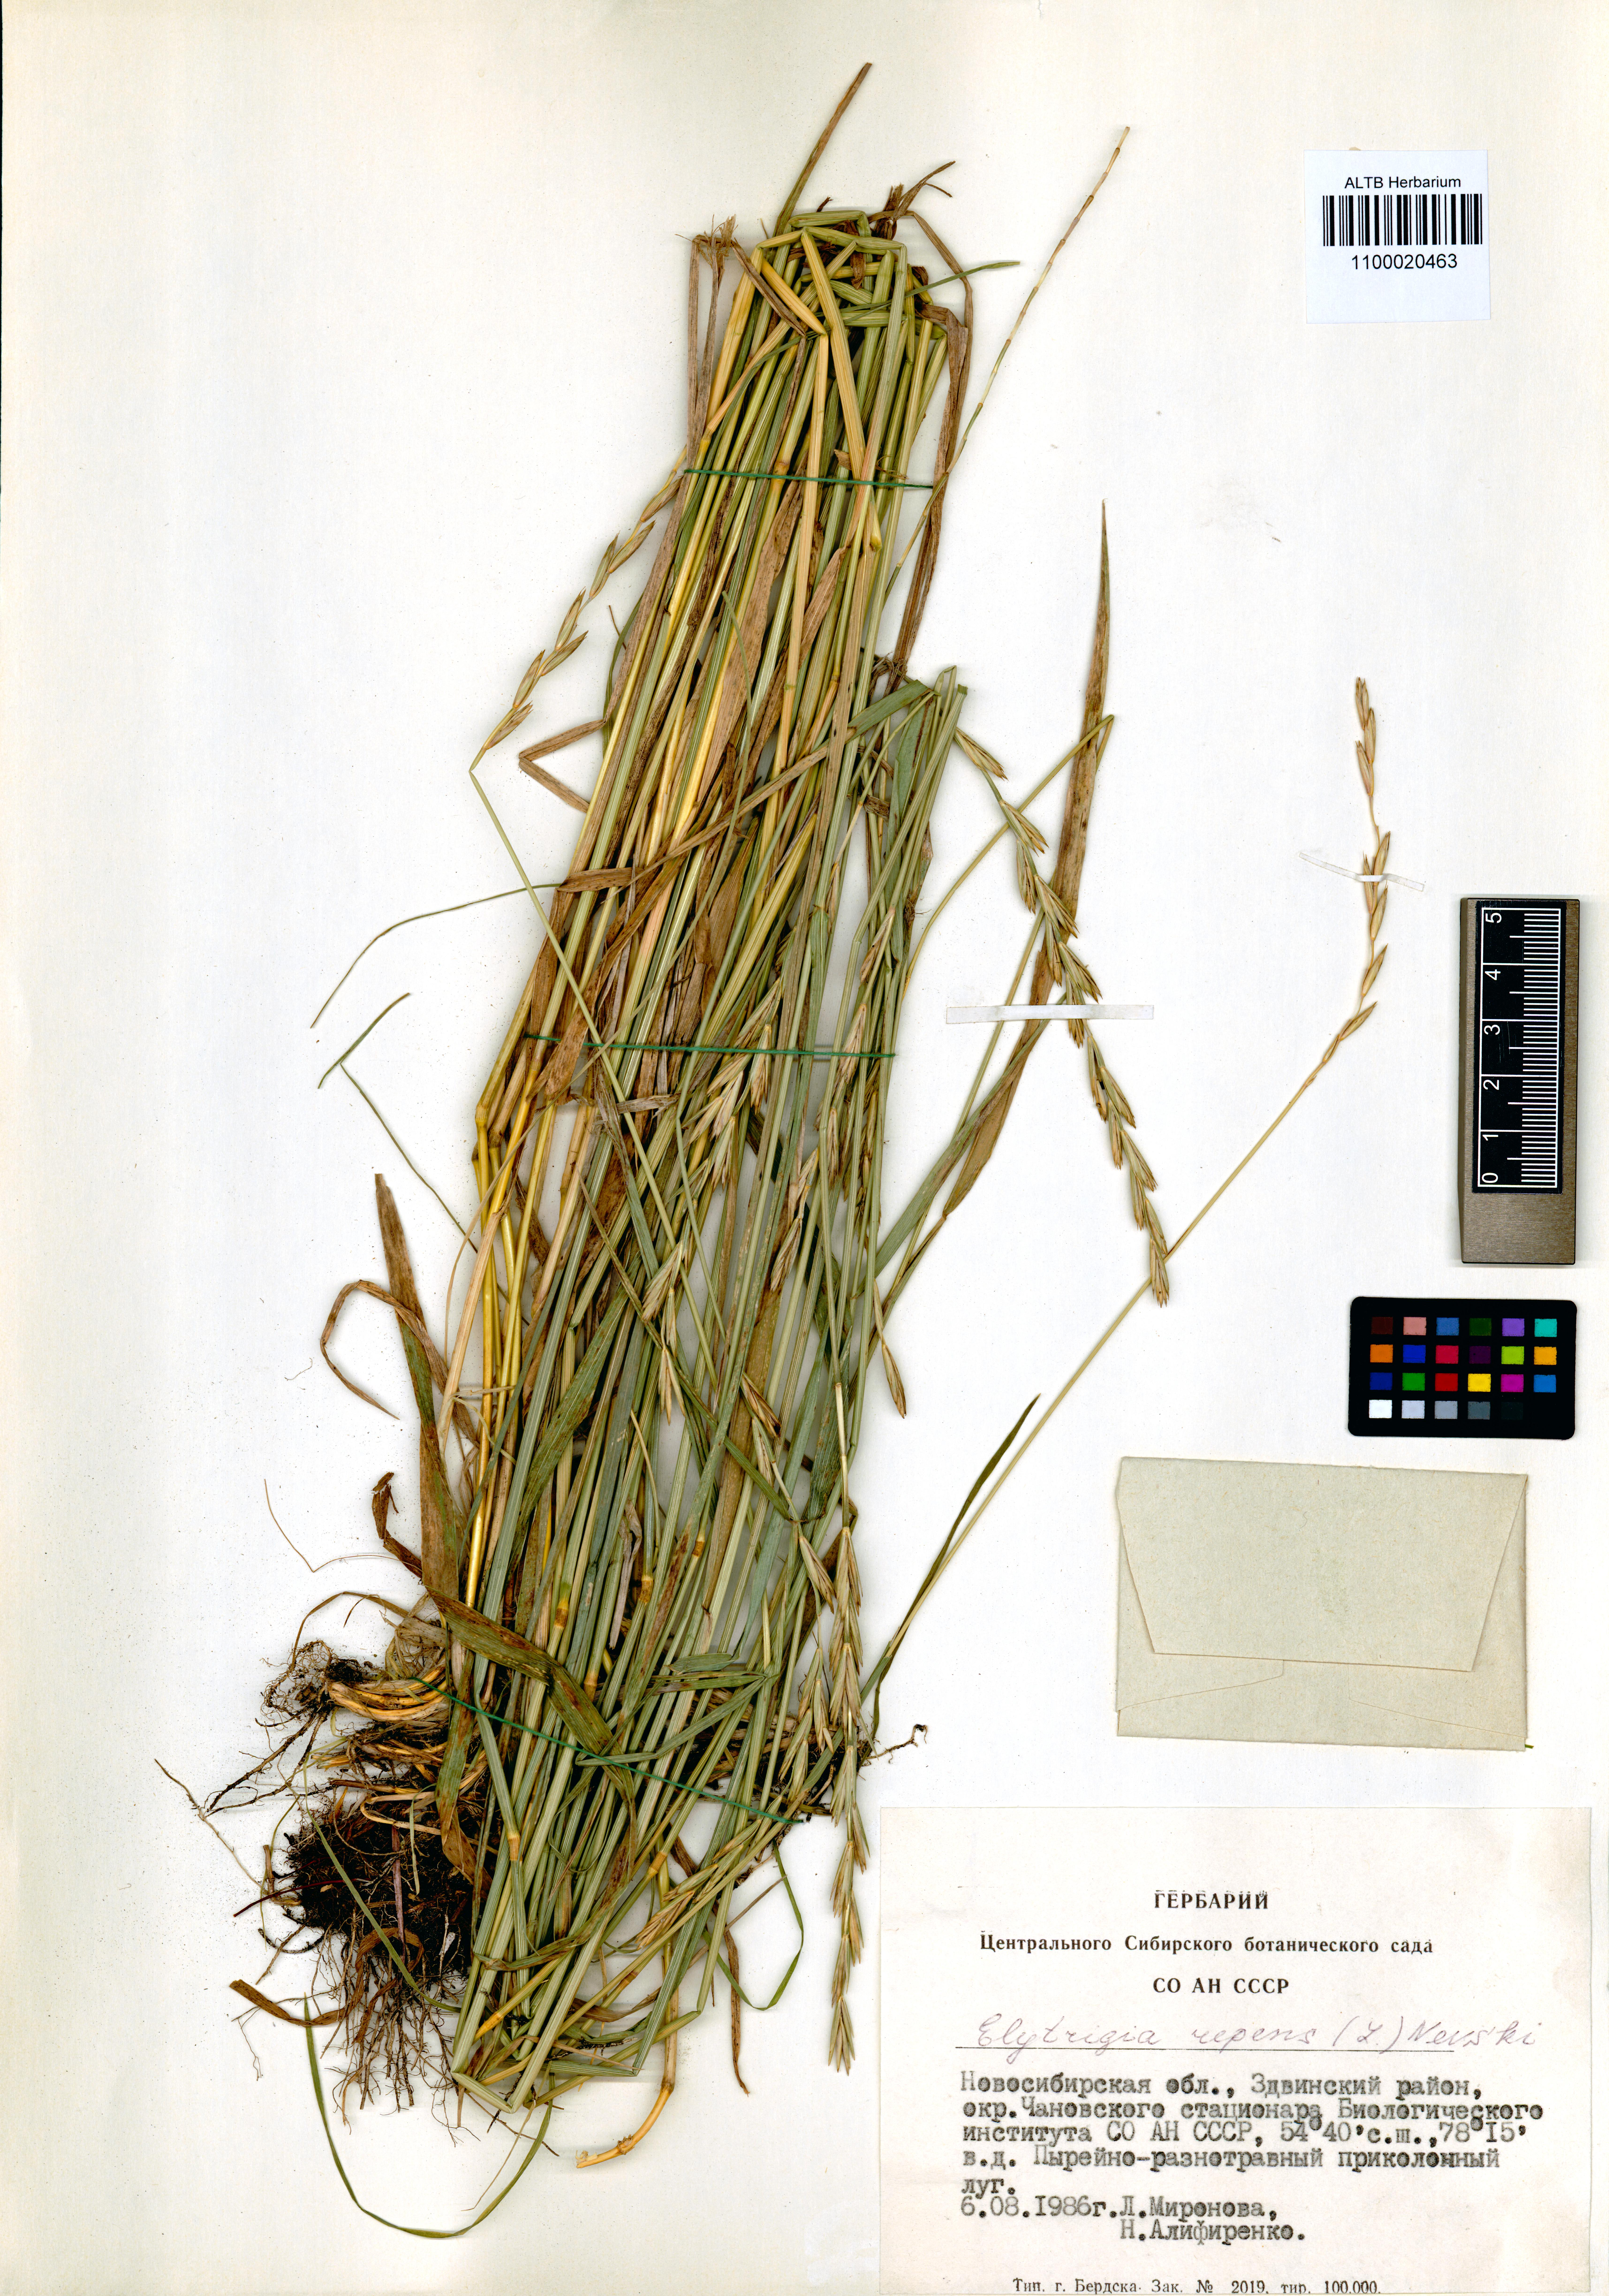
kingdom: Plantae
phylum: Tracheophyta
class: Liliopsida
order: Poales
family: Poaceae
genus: Elymus
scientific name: Elymus repens
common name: Quackgrass
